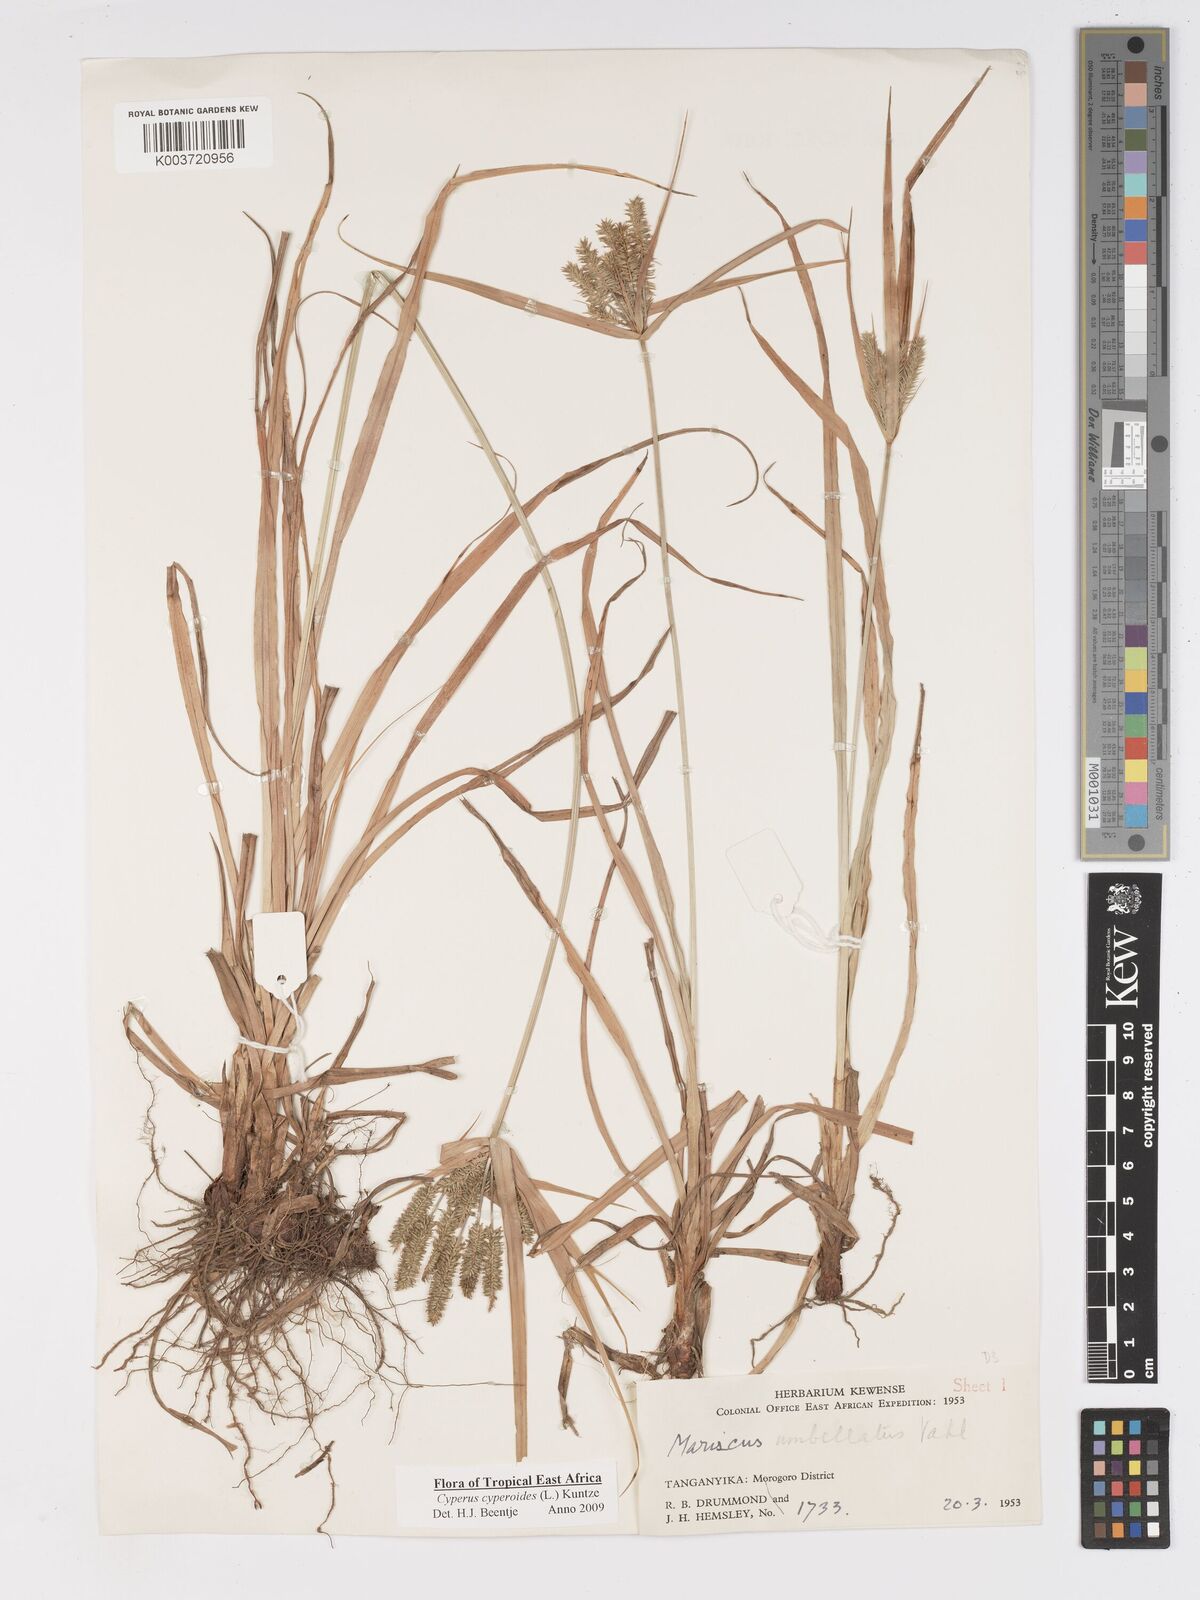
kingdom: Plantae
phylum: Tracheophyta
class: Liliopsida
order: Poales
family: Cyperaceae
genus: Cyperus
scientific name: Cyperus cyperoides
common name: Pacific island flat sedge
